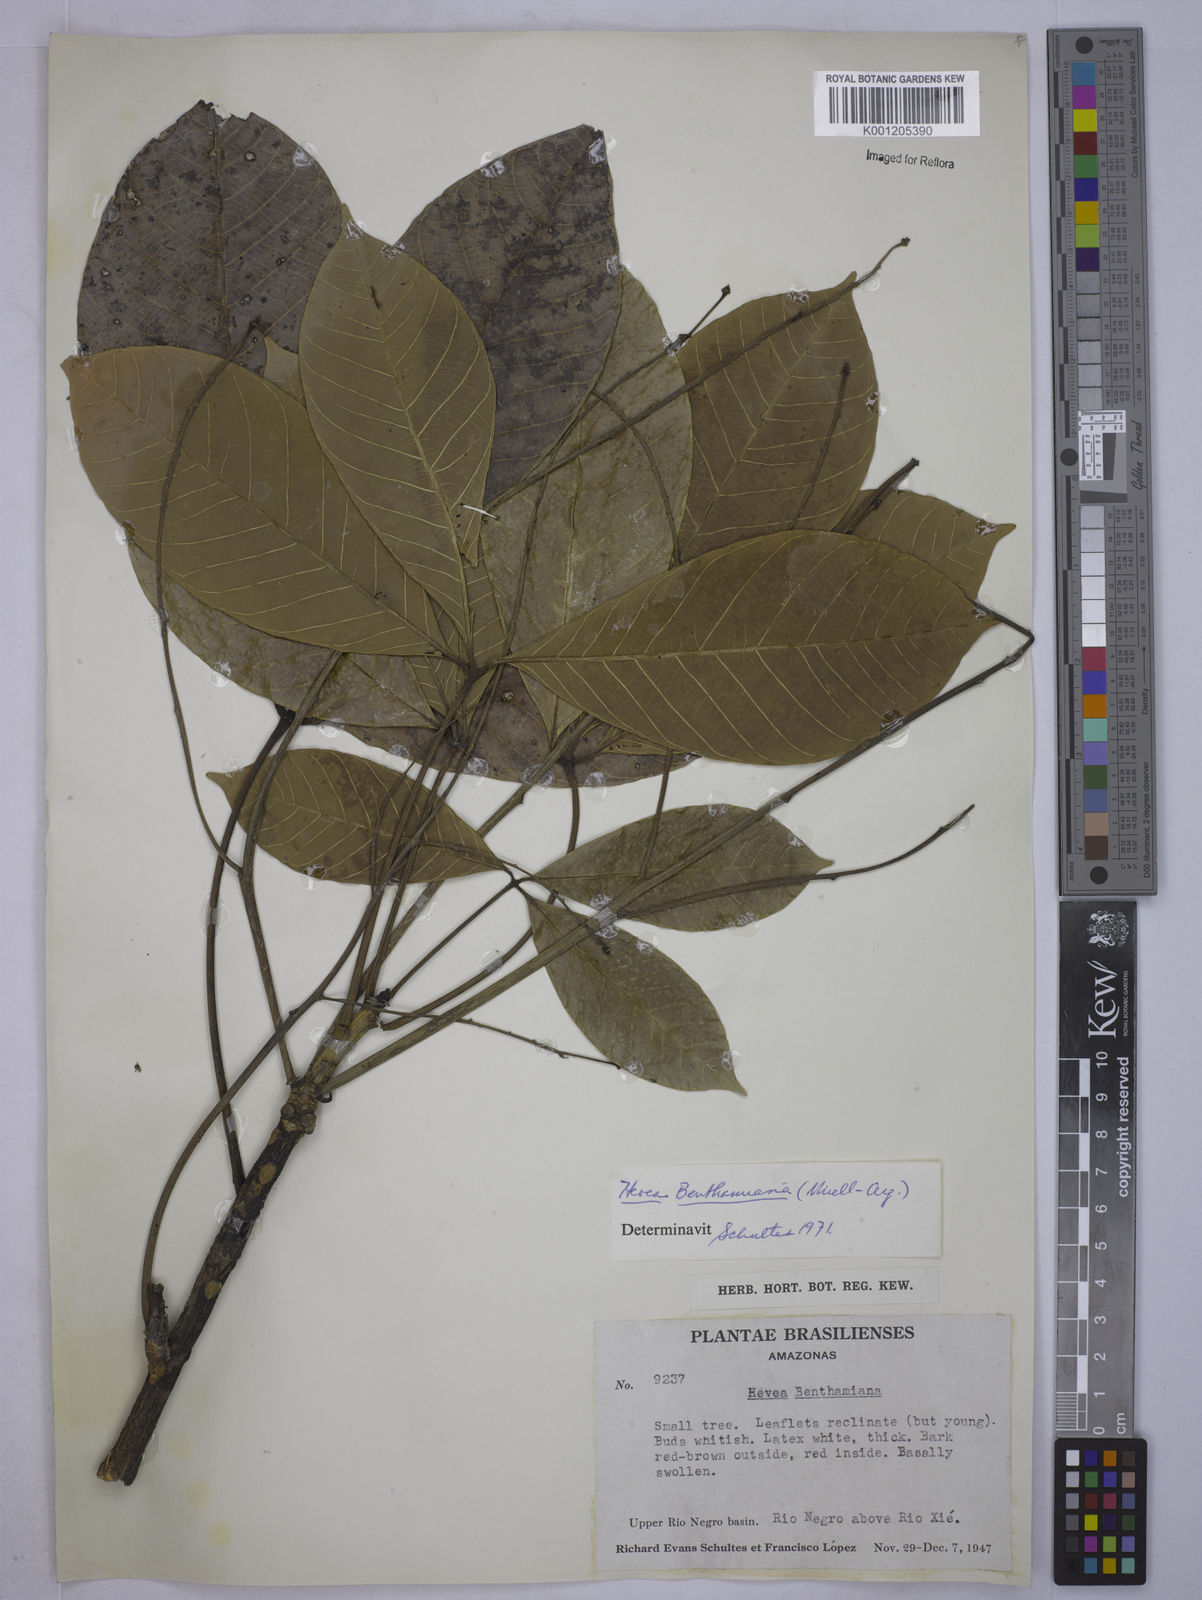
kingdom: Plantae
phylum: Tracheophyta
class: Magnoliopsida
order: Malpighiales
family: Euphorbiaceae
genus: Hevea
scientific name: Hevea
